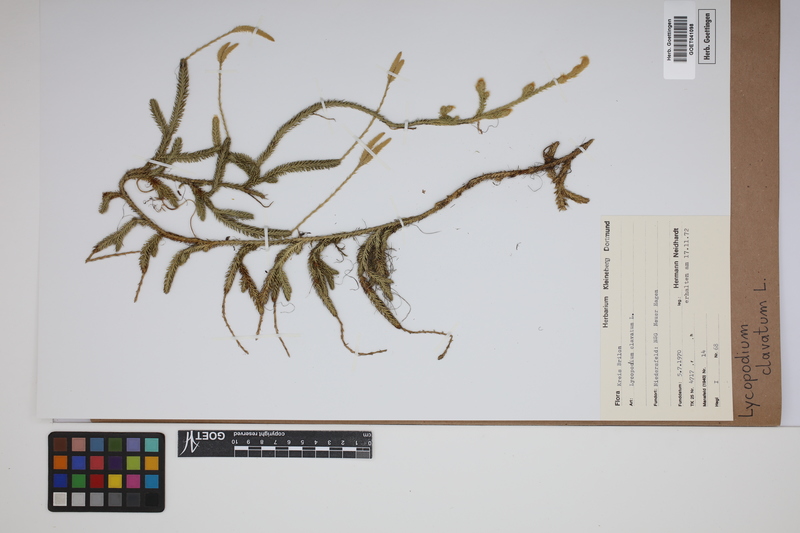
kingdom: Plantae
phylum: Tracheophyta
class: Lycopodiopsida
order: Lycopodiales
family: Lycopodiaceae
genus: Lycopodium
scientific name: Lycopodium clavatum
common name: Stag's-horn clubmoss
